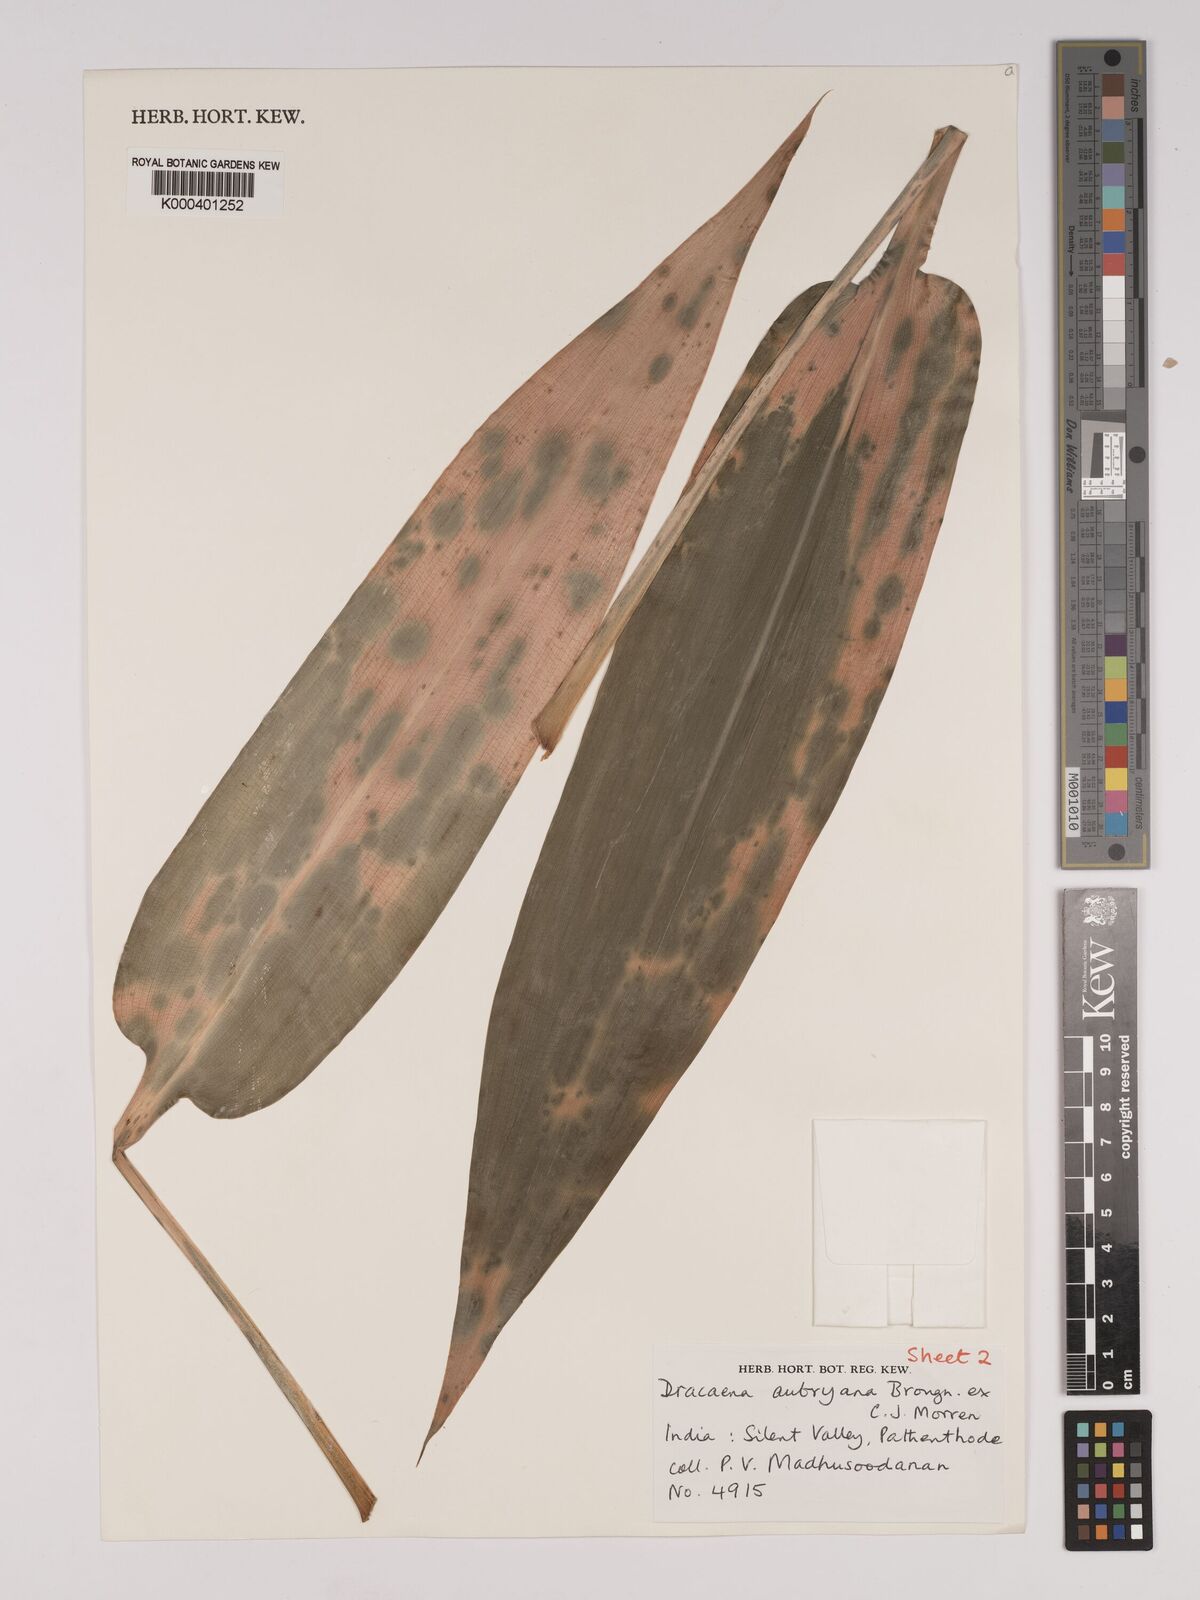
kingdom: Plantae
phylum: Tracheophyta
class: Liliopsida
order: Asparagales
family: Asparagaceae
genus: Dracaena
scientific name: Dracaena aubryana
